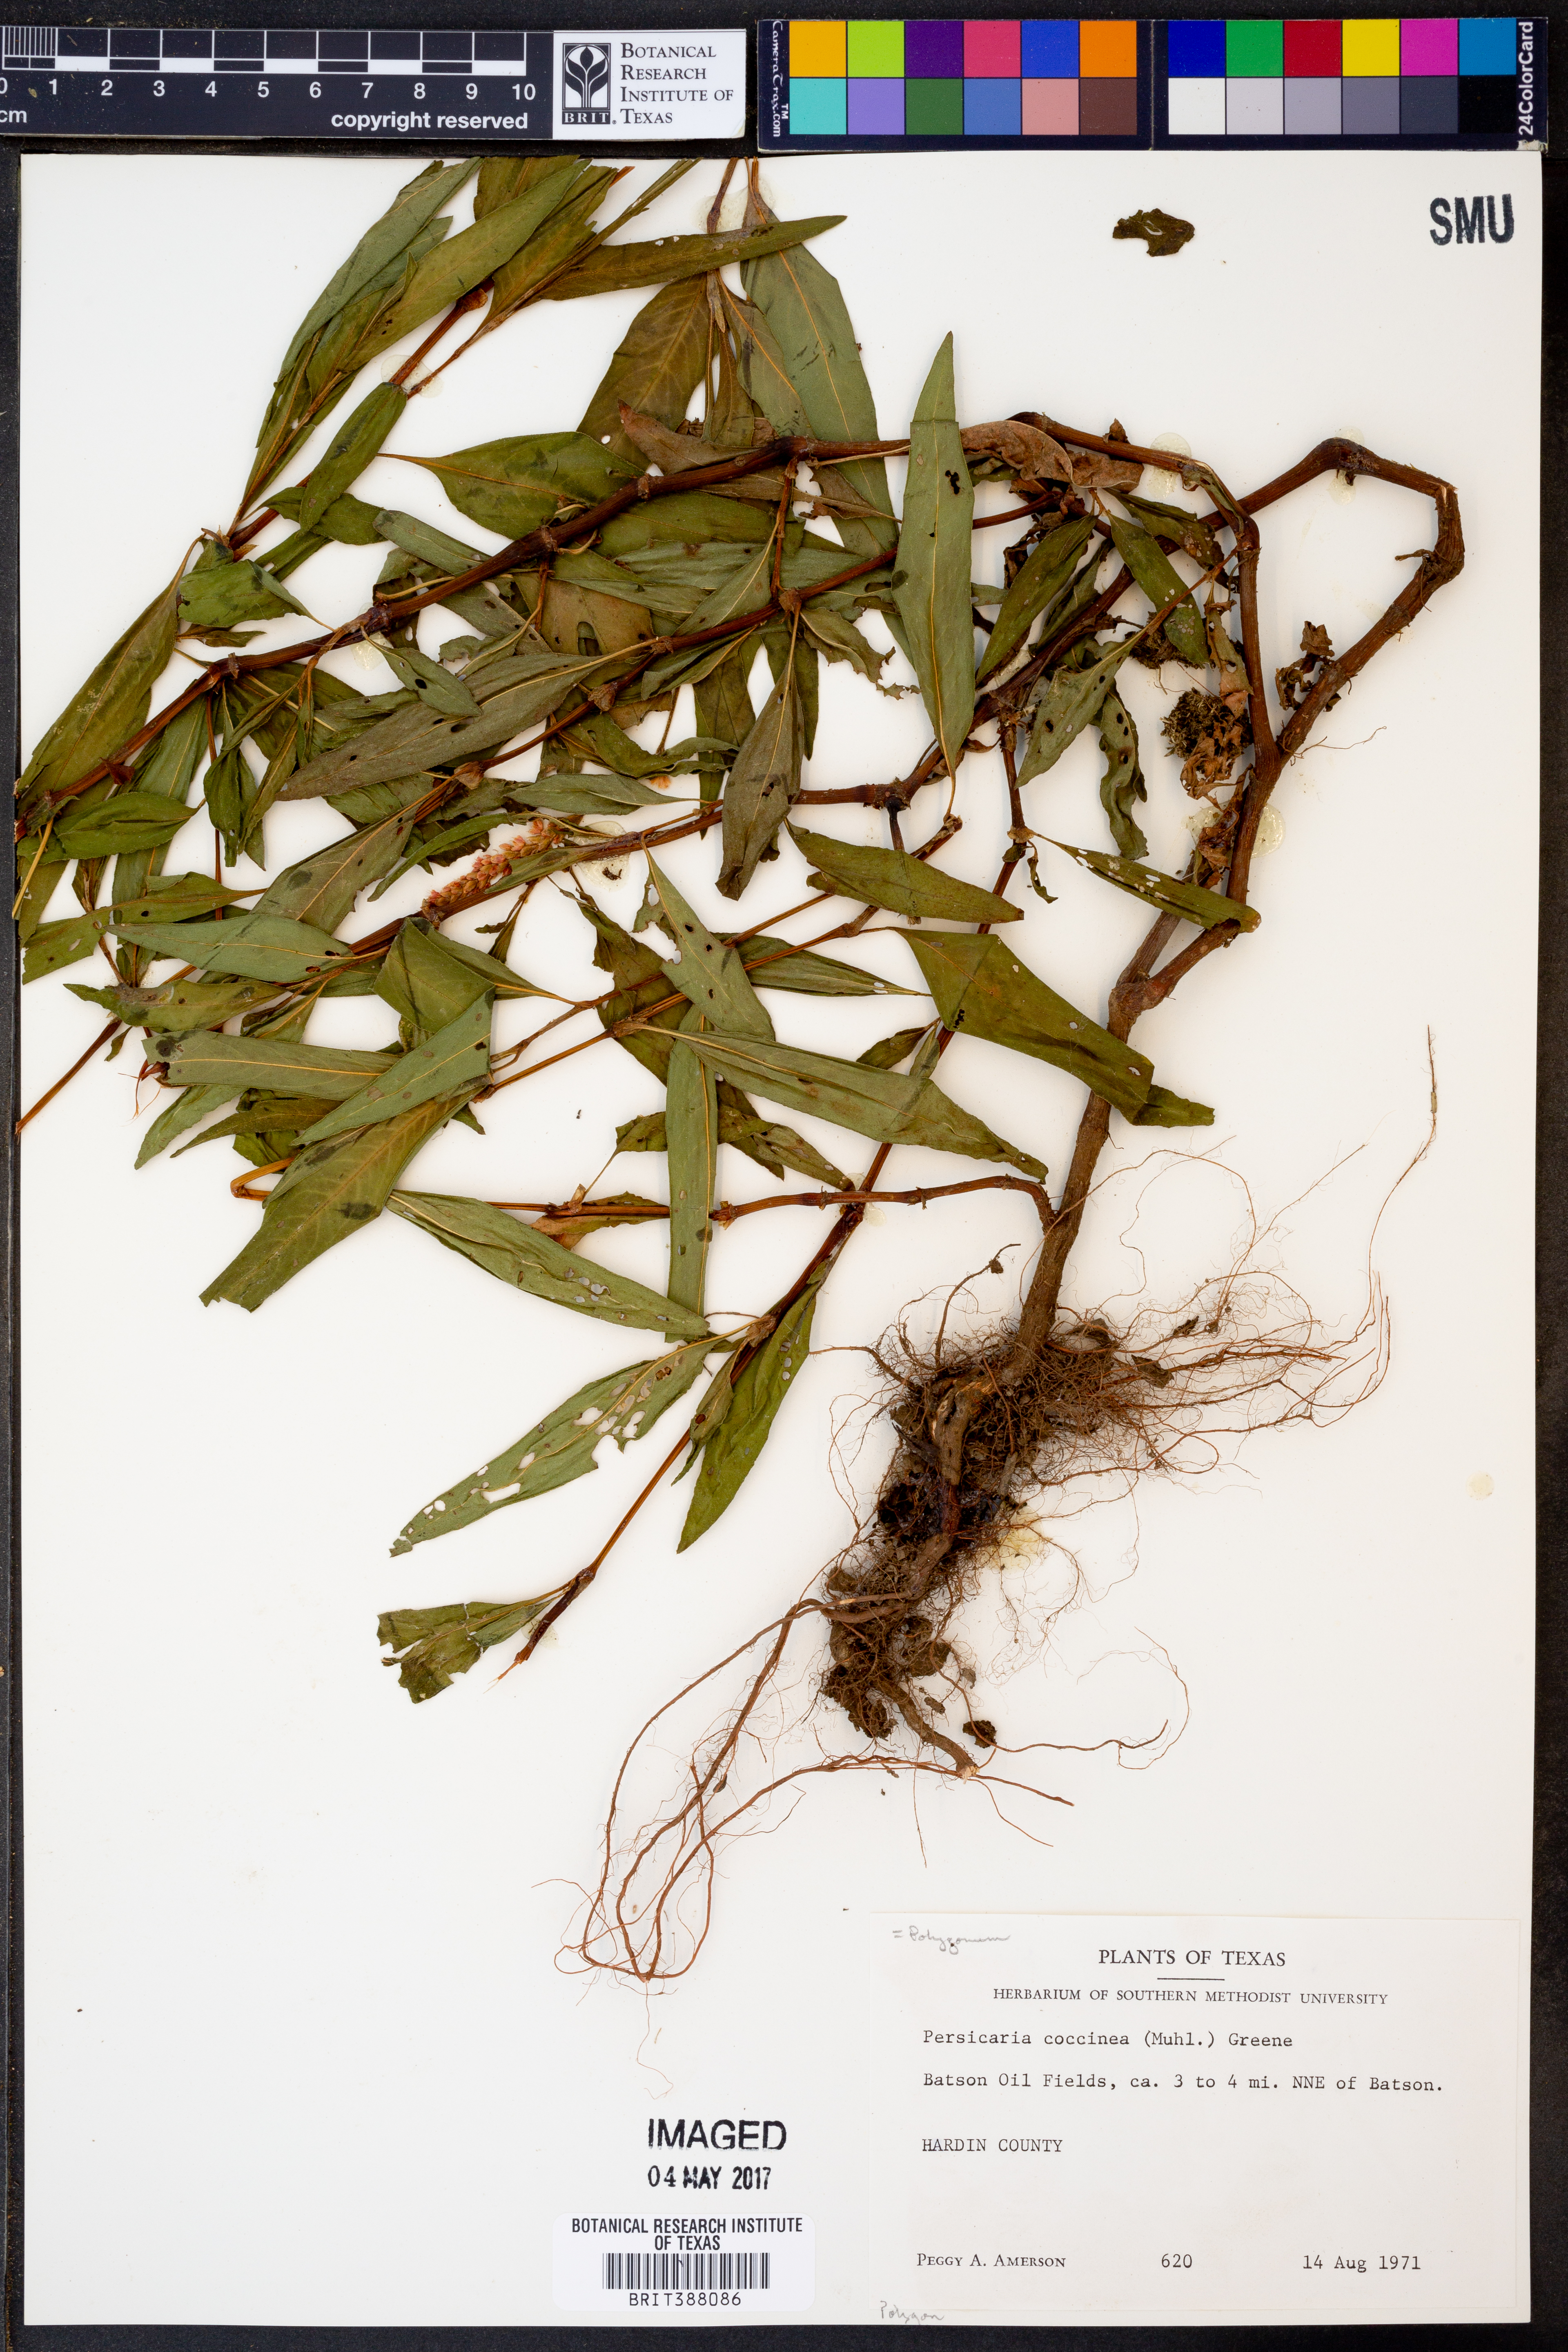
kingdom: Plantae
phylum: Tracheophyta
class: Magnoliopsida
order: Caryophyllales
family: Polygonaceae
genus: Persicaria
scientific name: Persicaria amphibia
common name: Amphibious bistort
